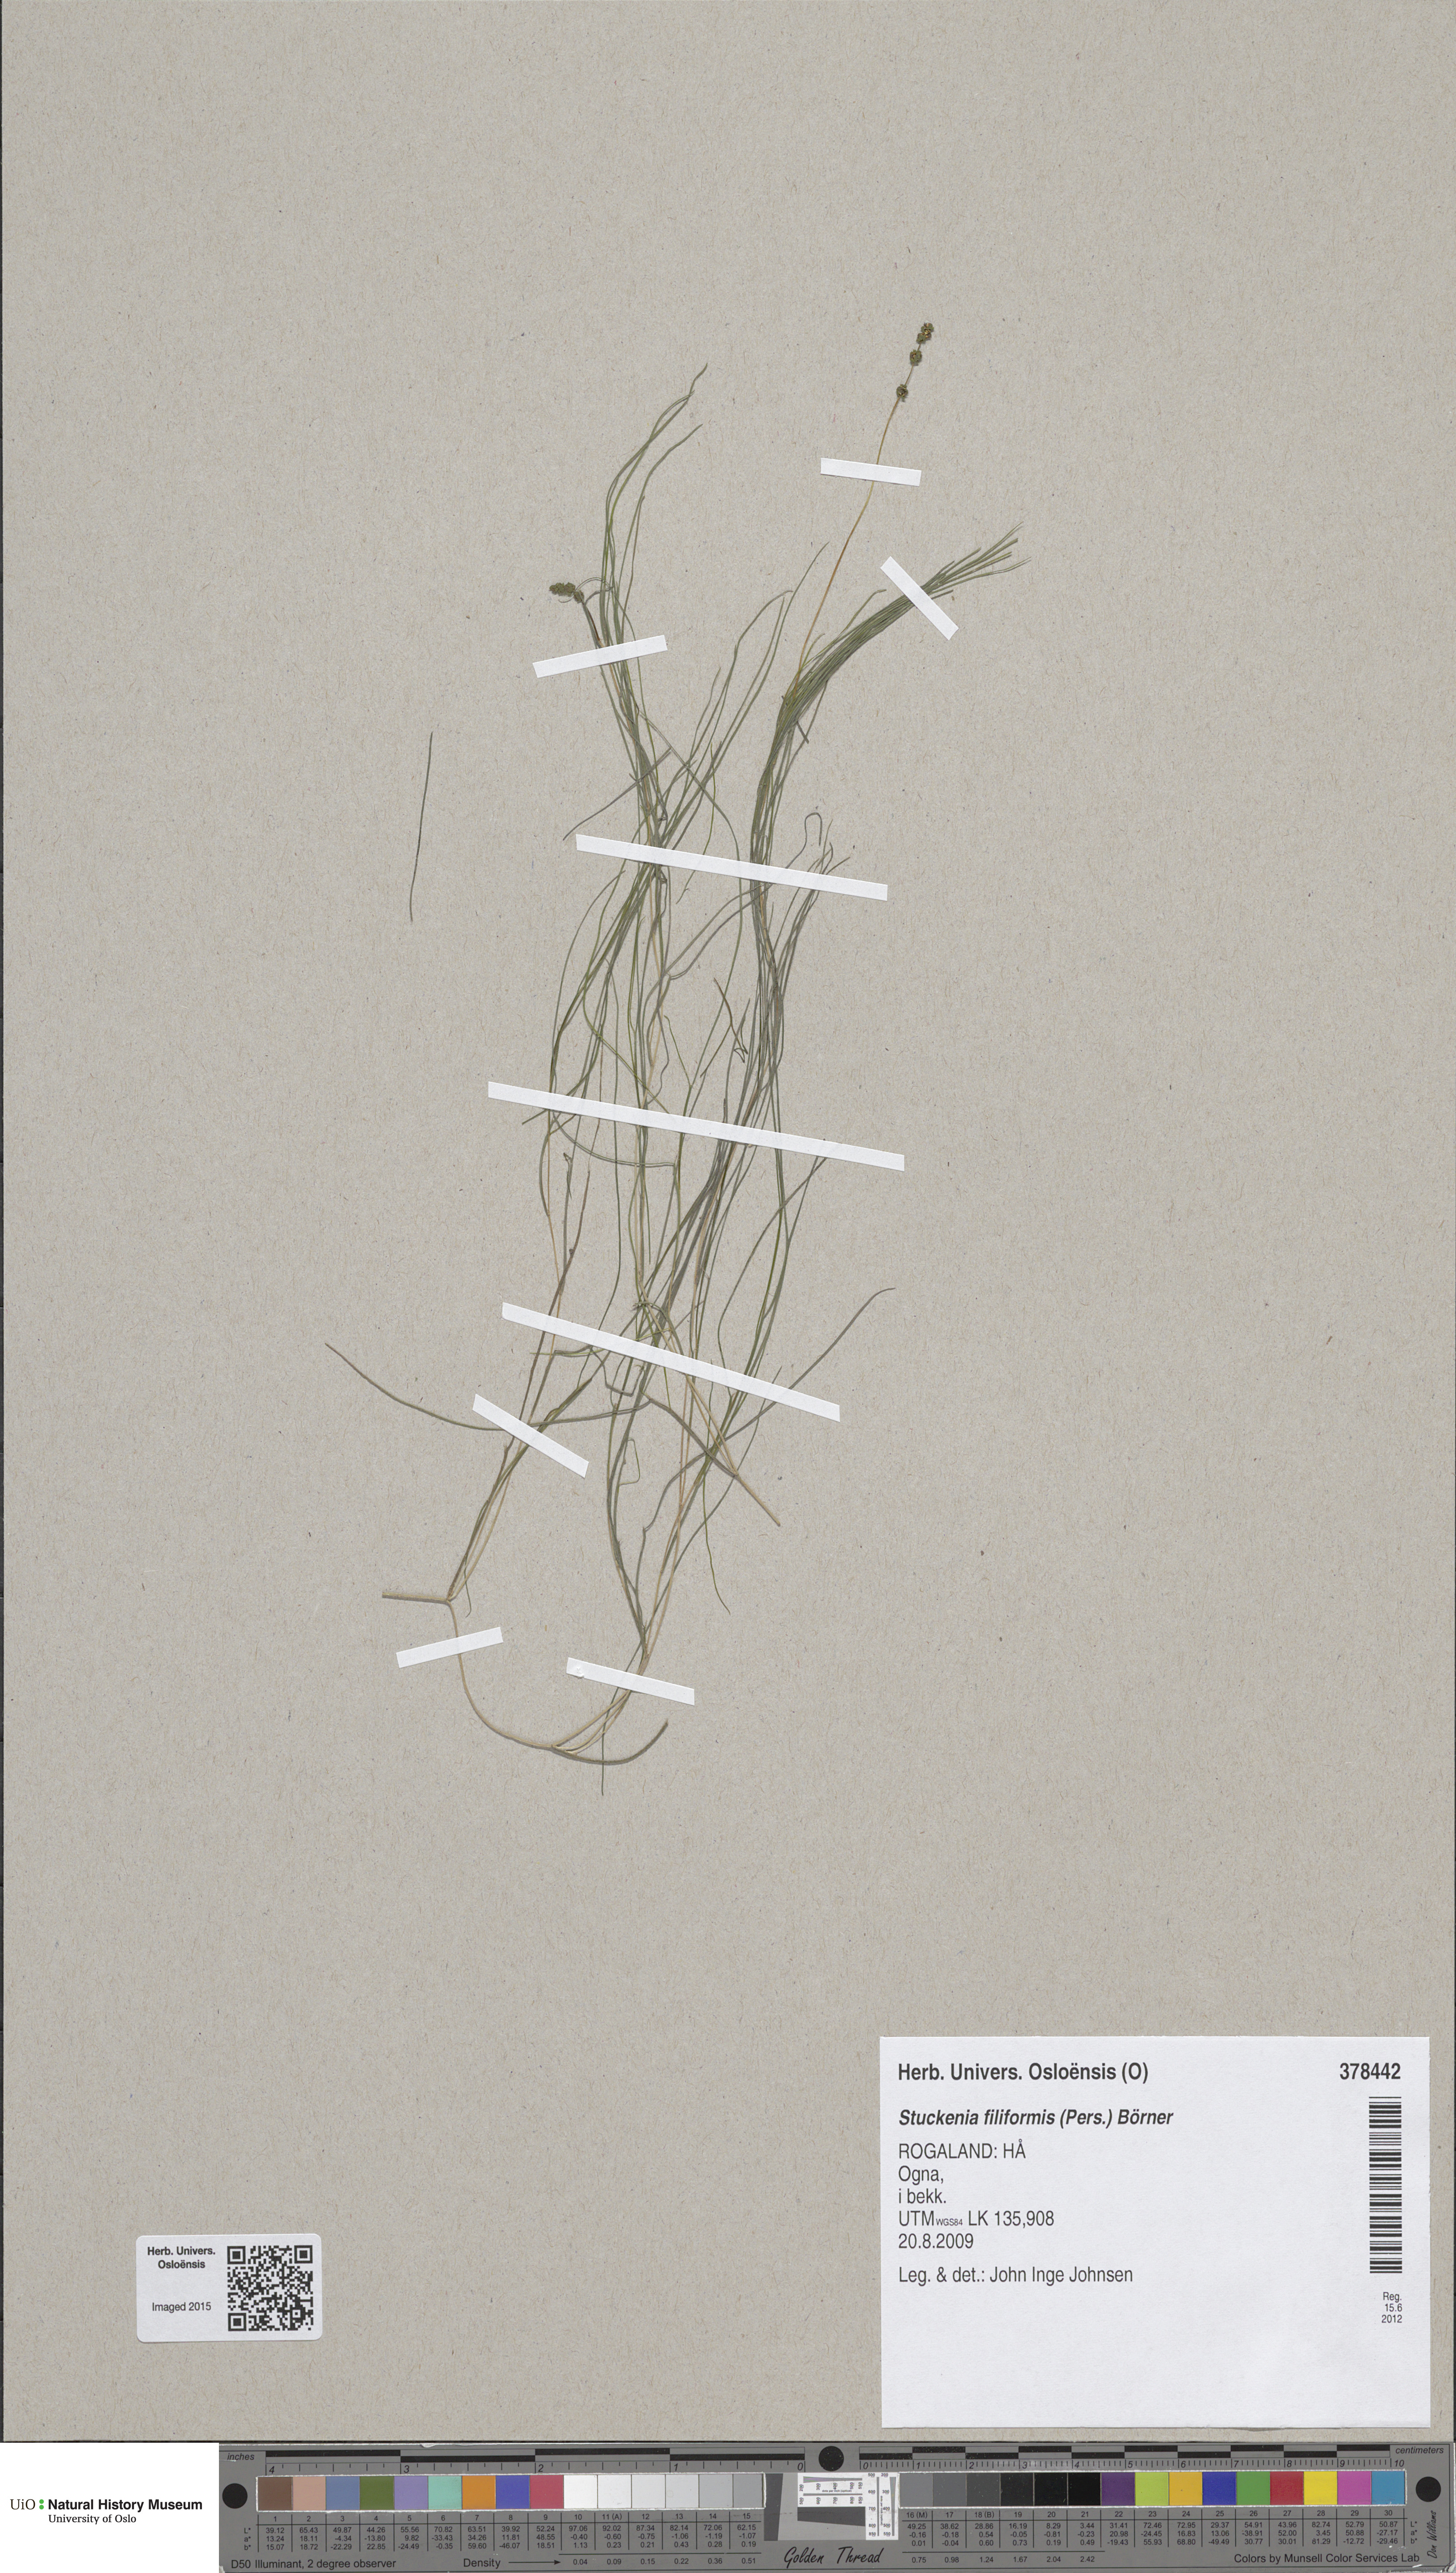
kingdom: Plantae
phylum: Tracheophyta
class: Liliopsida
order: Alismatales
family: Potamogetonaceae
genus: Stuckenia
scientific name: Stuckenia suecica
